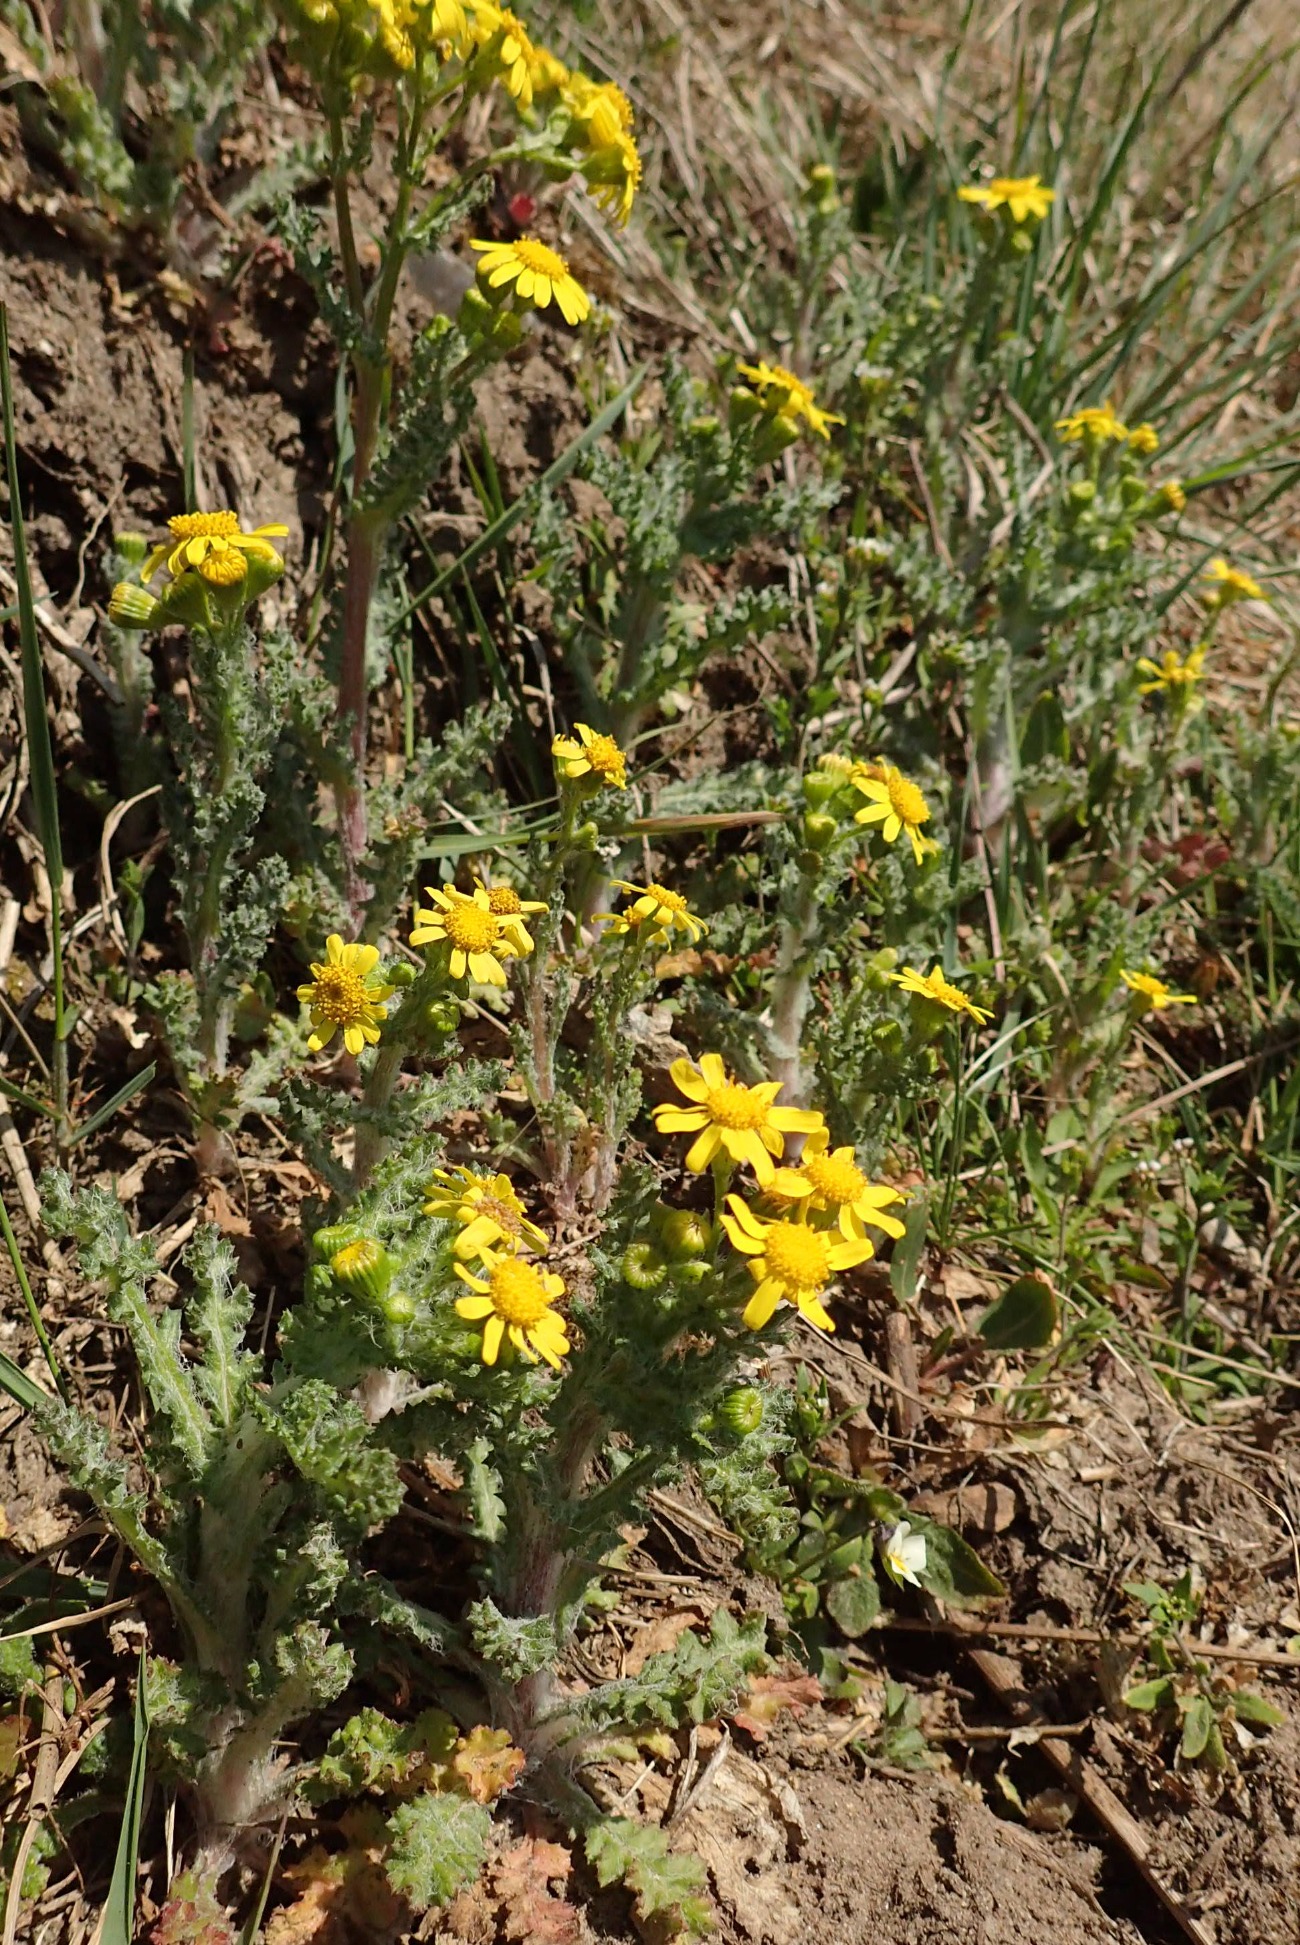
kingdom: Plantae
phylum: Tracheophyta
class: Magnoliopsida
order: Asterales
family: Asteraceae
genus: Senecio
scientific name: Senecio leucanthemifolius
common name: Vår-brandbæger
